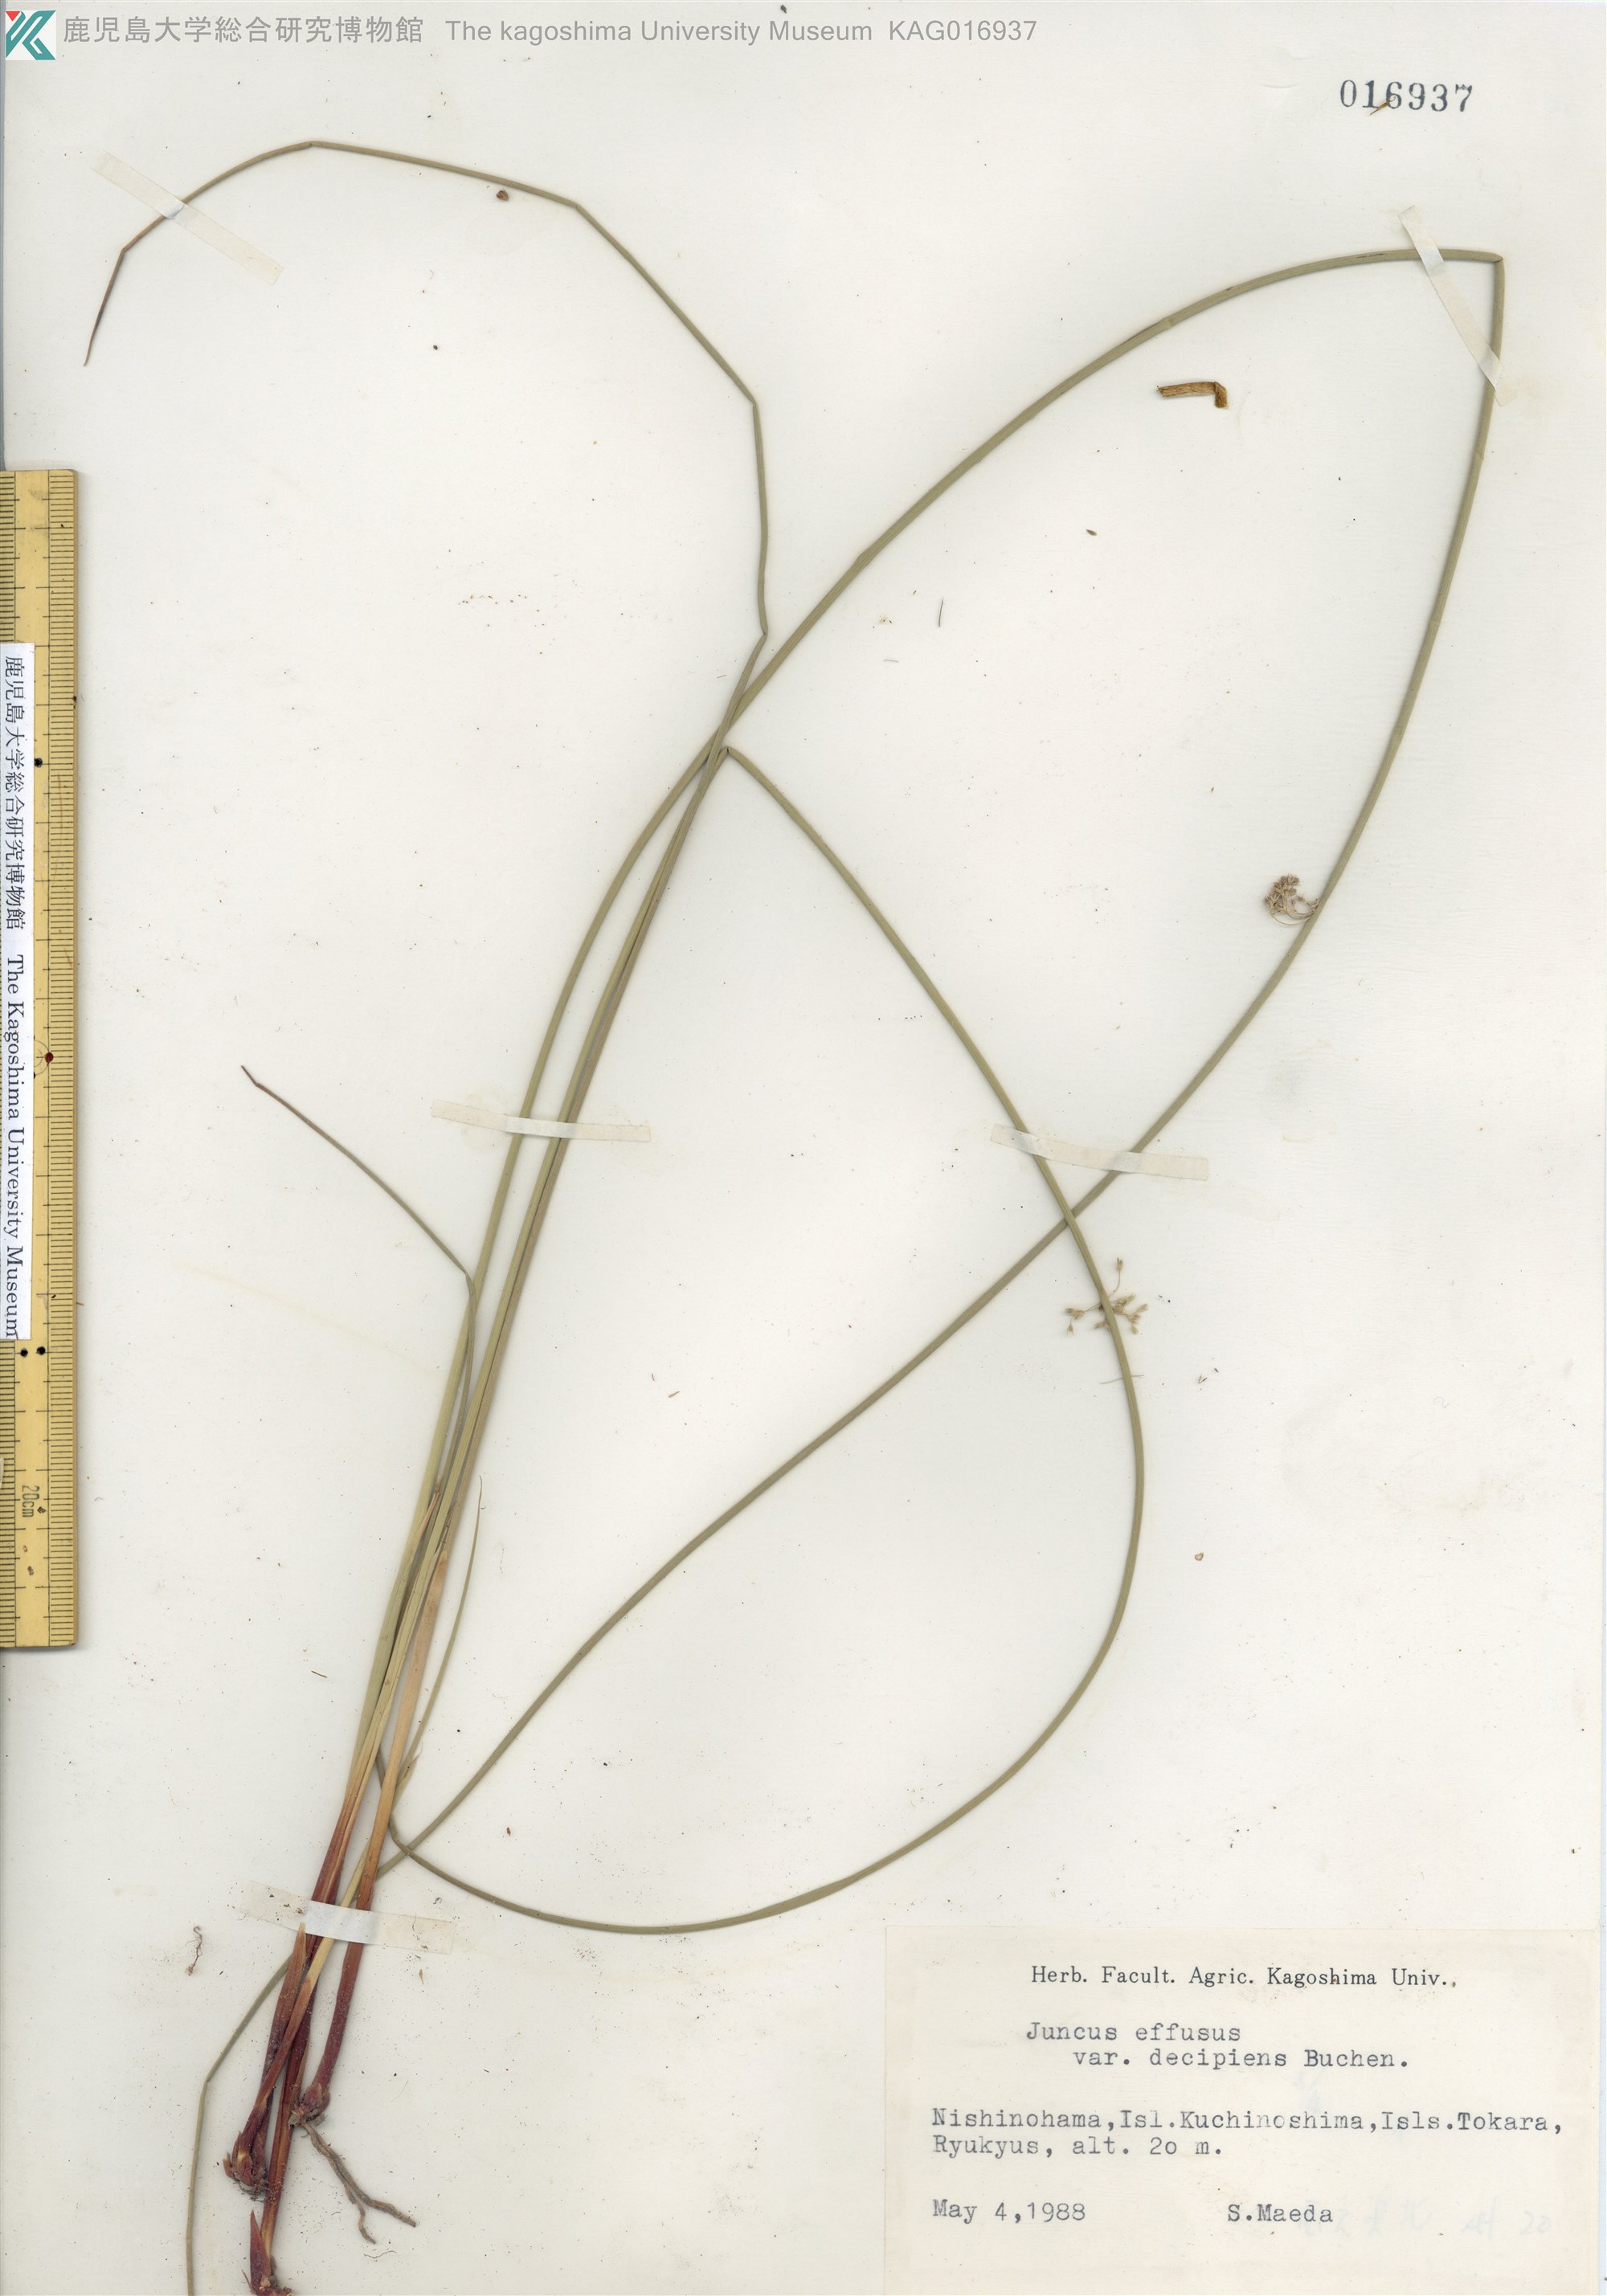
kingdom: Plantae
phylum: Tracheophyta
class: Liliopsida
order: Poales
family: Juncaceae
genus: Juncus
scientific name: Juncus decipiens
